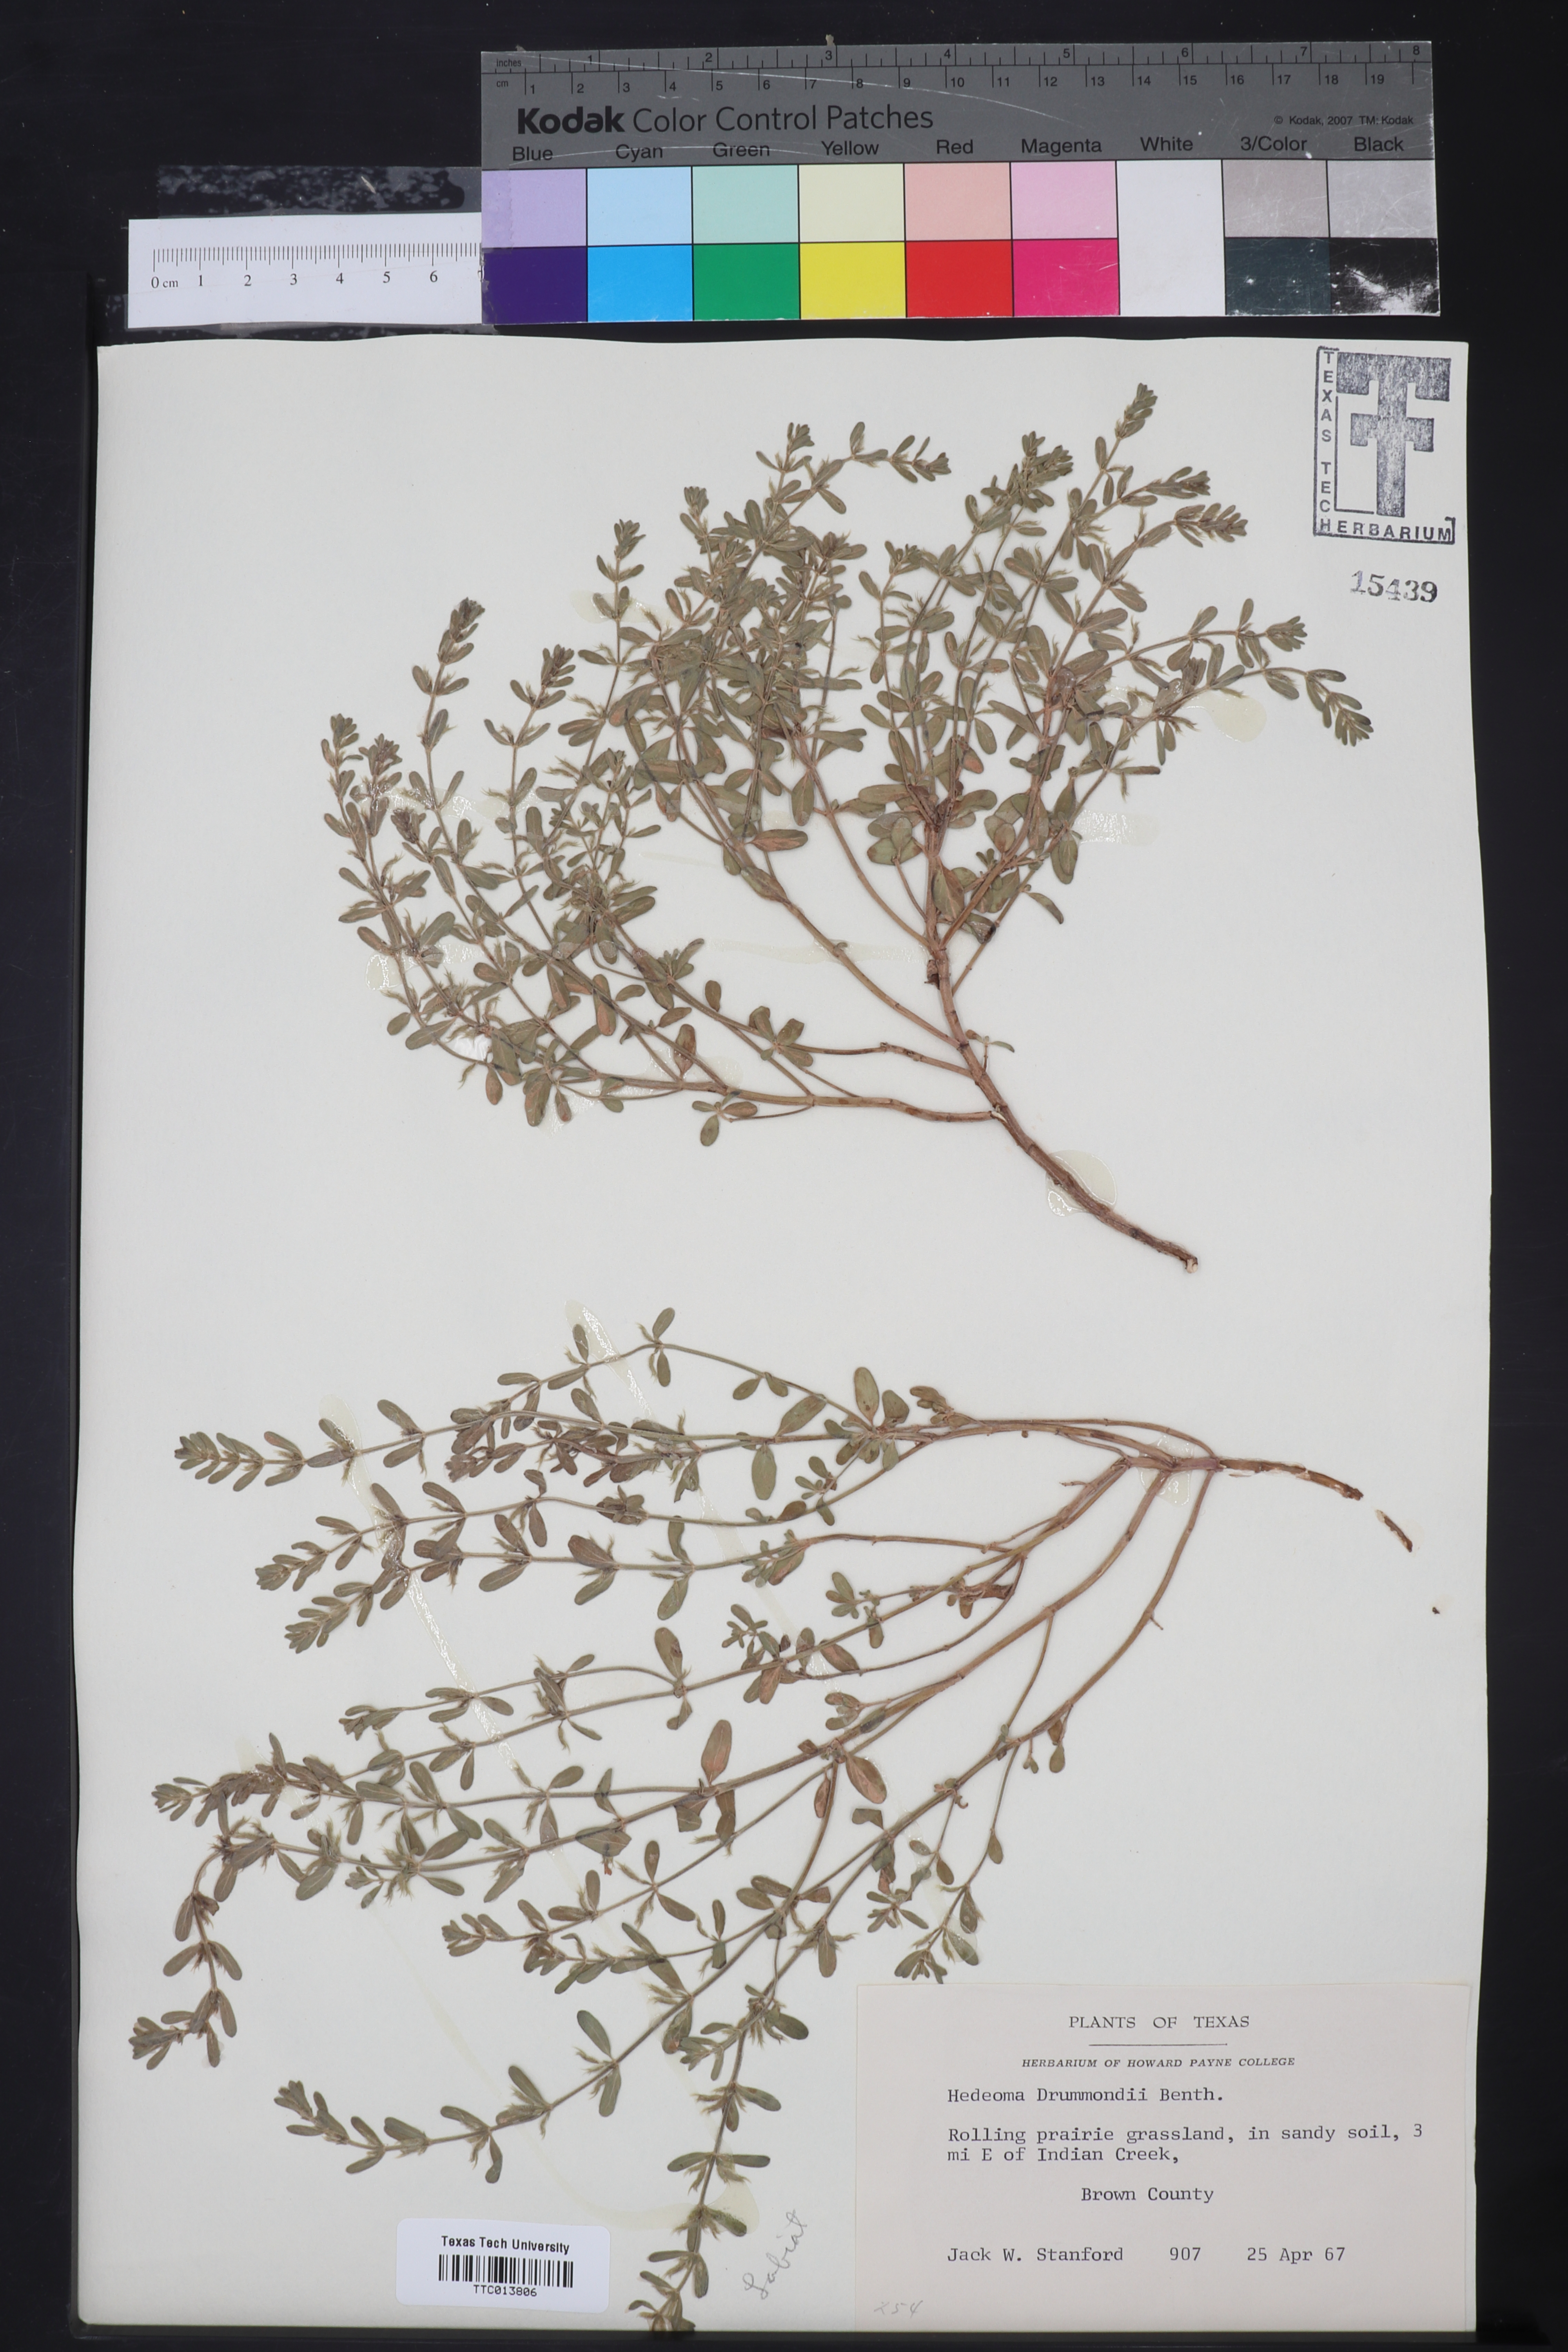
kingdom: Plantae
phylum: Tracheophyta
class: Magnoliopsida
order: Lamiales
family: Lamiaceae
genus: Hedeoma
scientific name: Hedeoma drummondii
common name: New mexico pennyroyal
